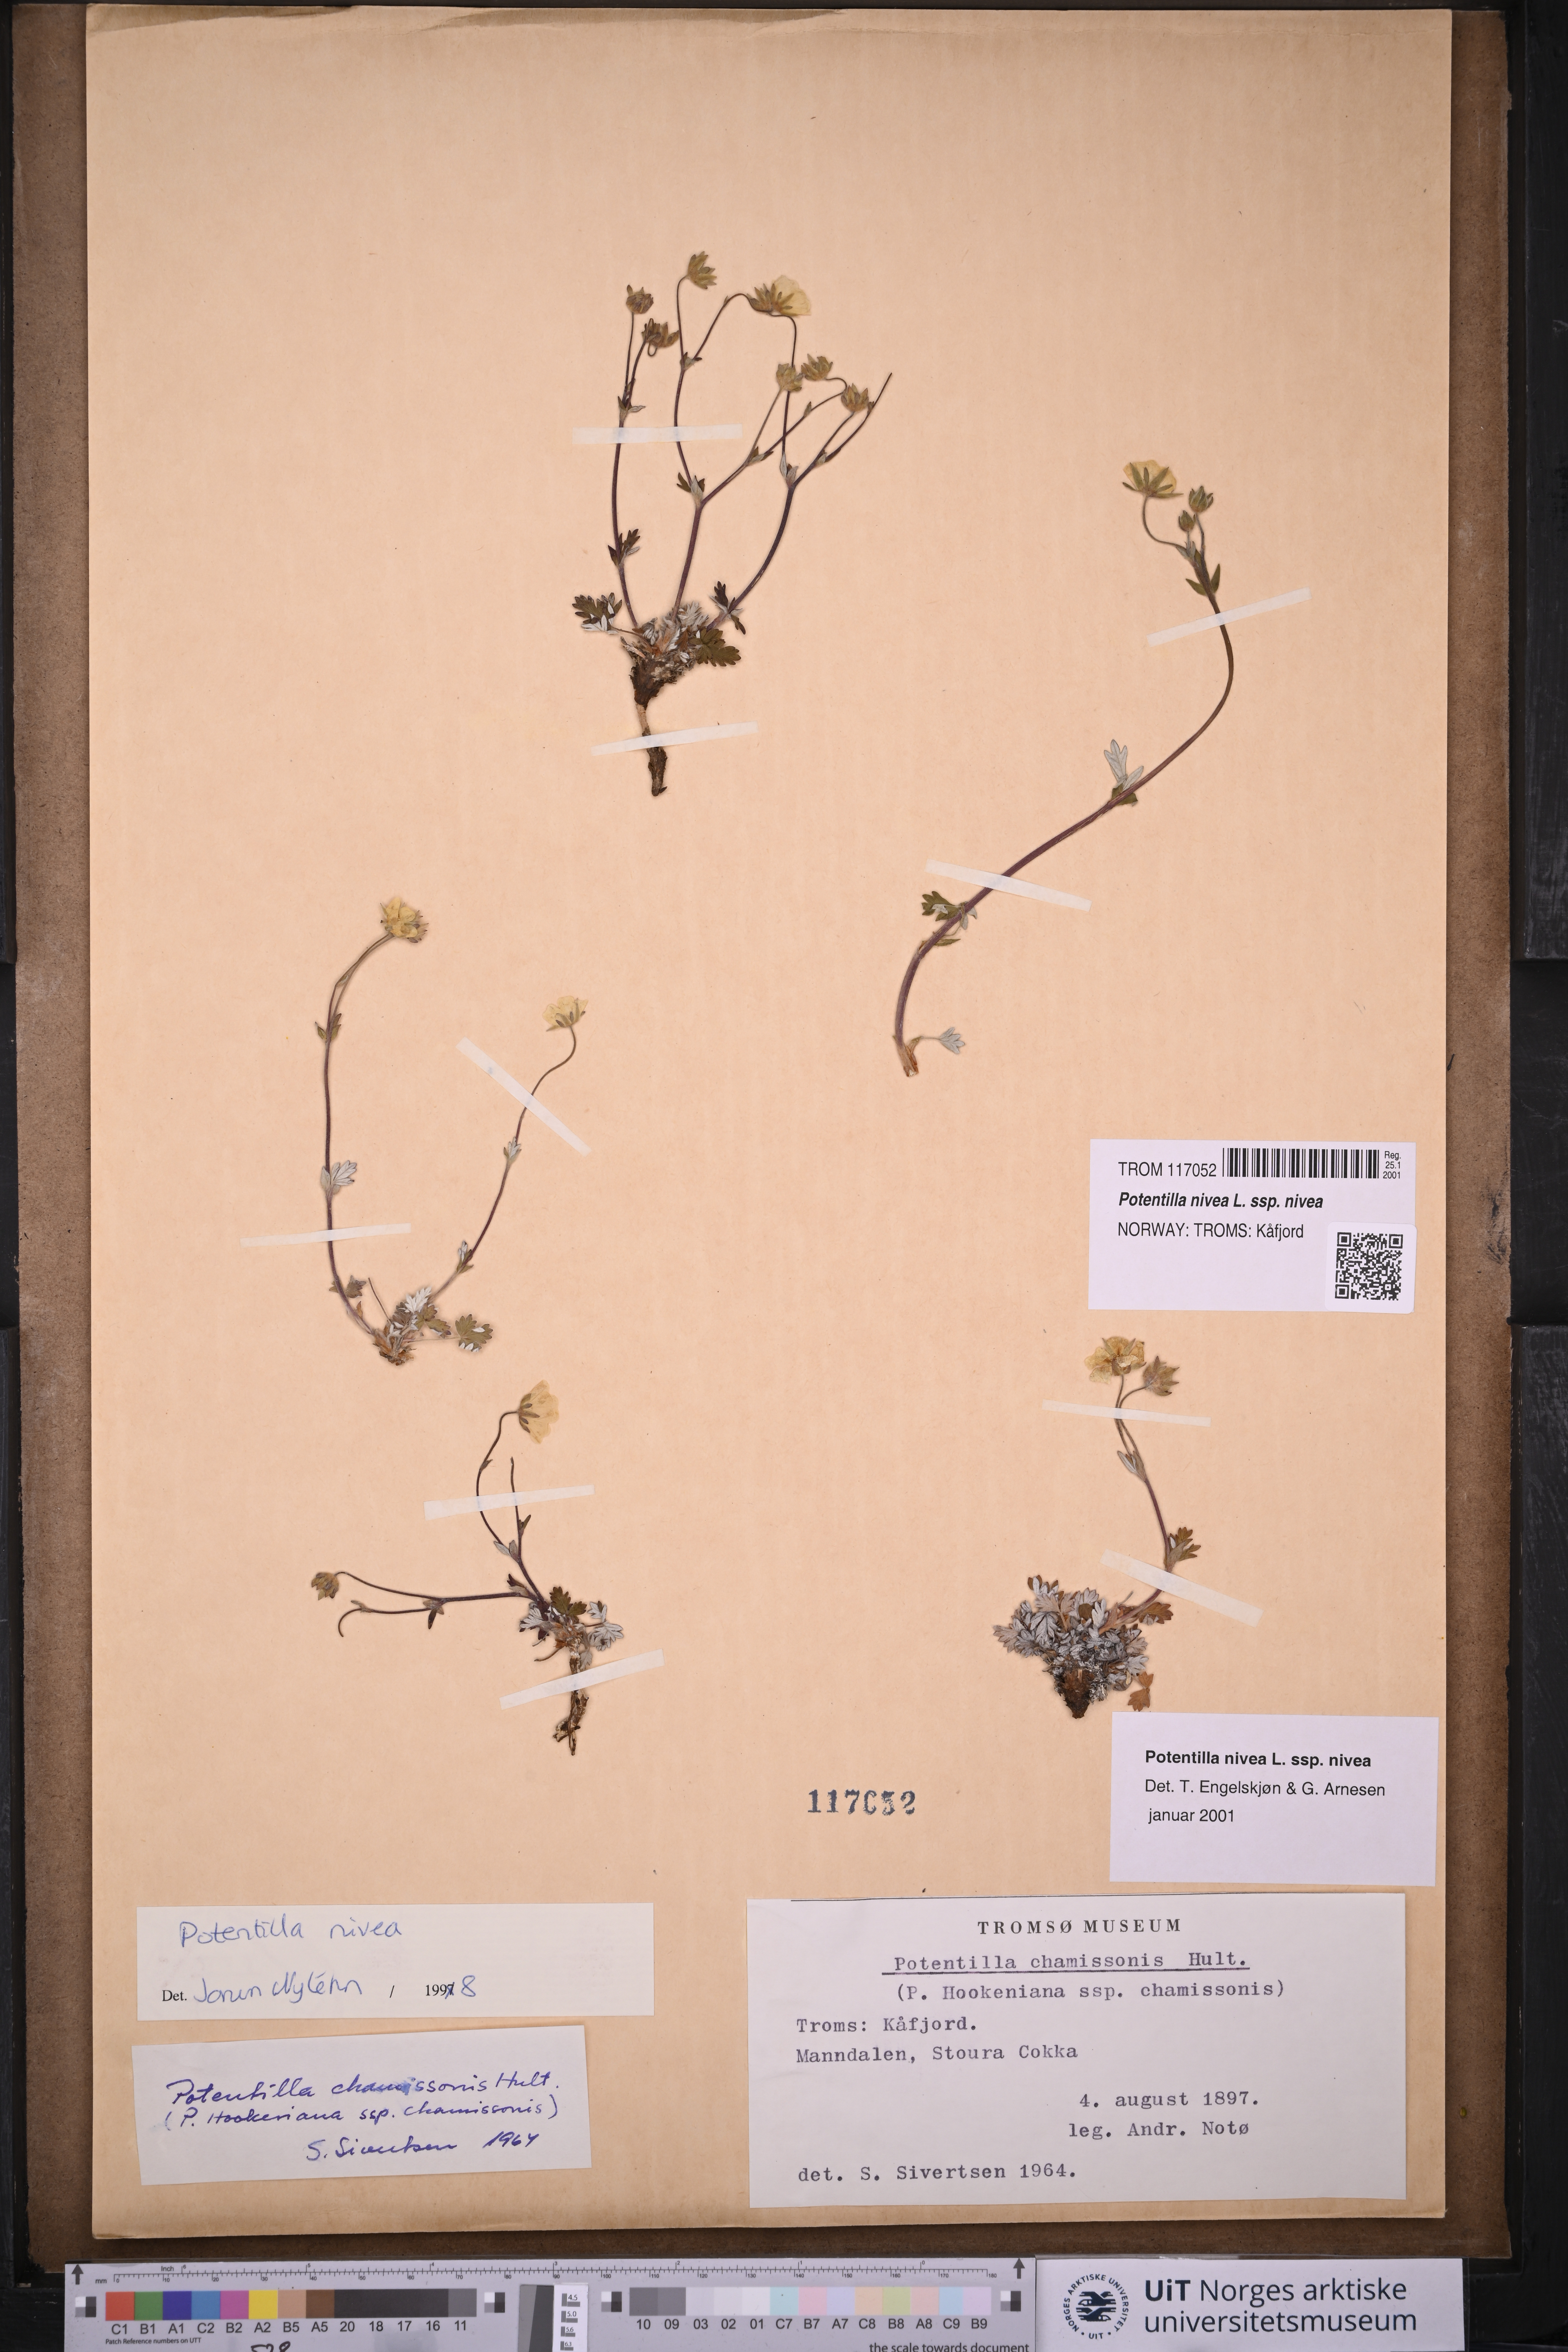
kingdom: Plantae
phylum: Tracheophyta
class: Magnoliopsida
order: Rosales
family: Rosaceae
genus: Potentilla
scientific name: Potentilla nivea
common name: Snow cinquefoil
